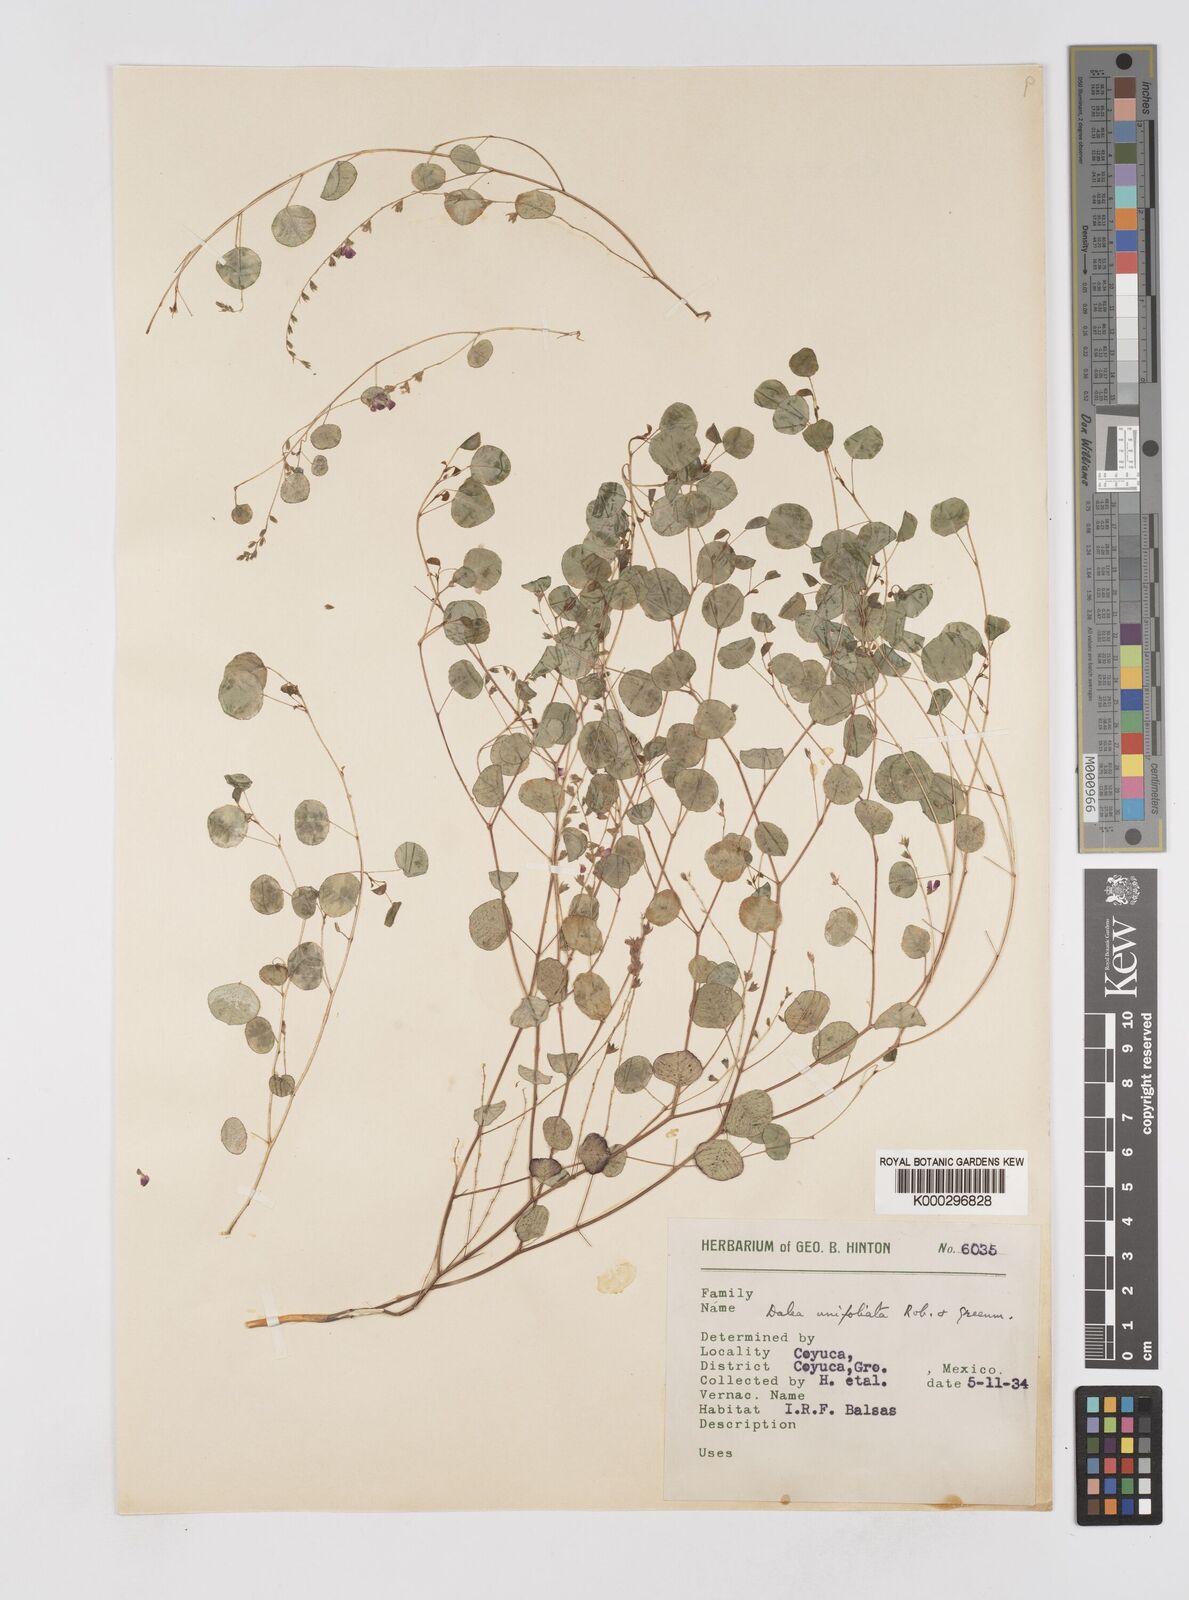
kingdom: Plantae
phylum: Tracheophyta
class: Magnoliopsida
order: Fabales
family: Fabaceae
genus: Marina
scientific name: Marina
